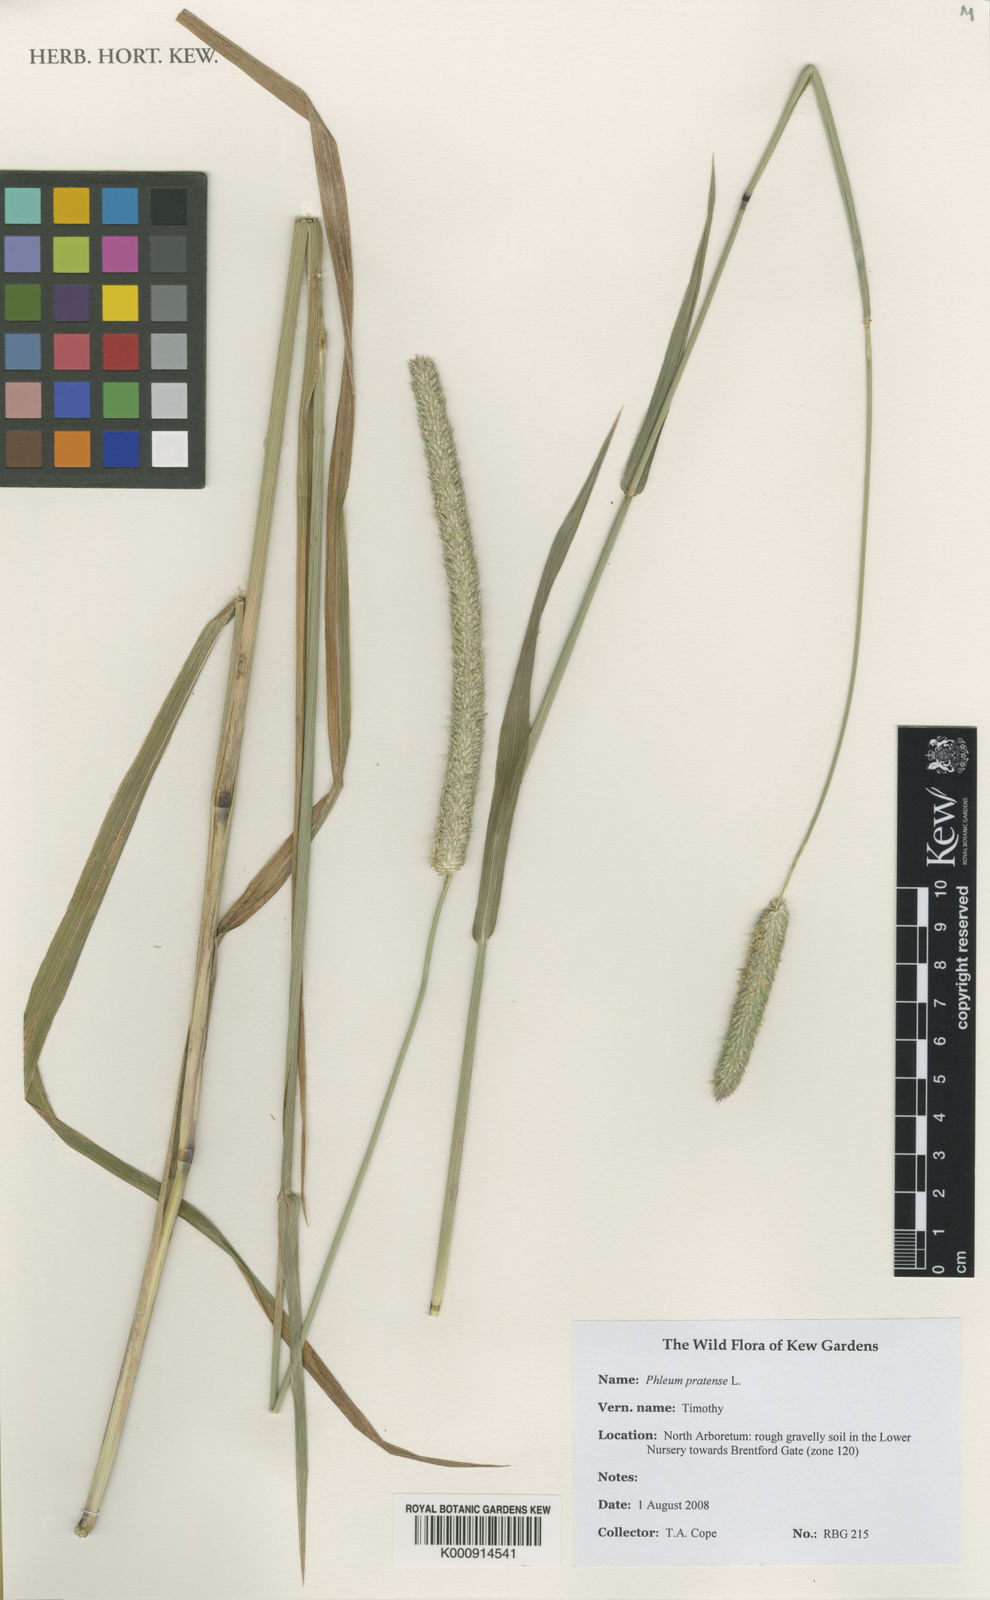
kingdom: Plantae
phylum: Tracheophyta
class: Liliopsida
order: Poales
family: Poaceae
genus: Phleum
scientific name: Phleum pratense
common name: Timothy grass
